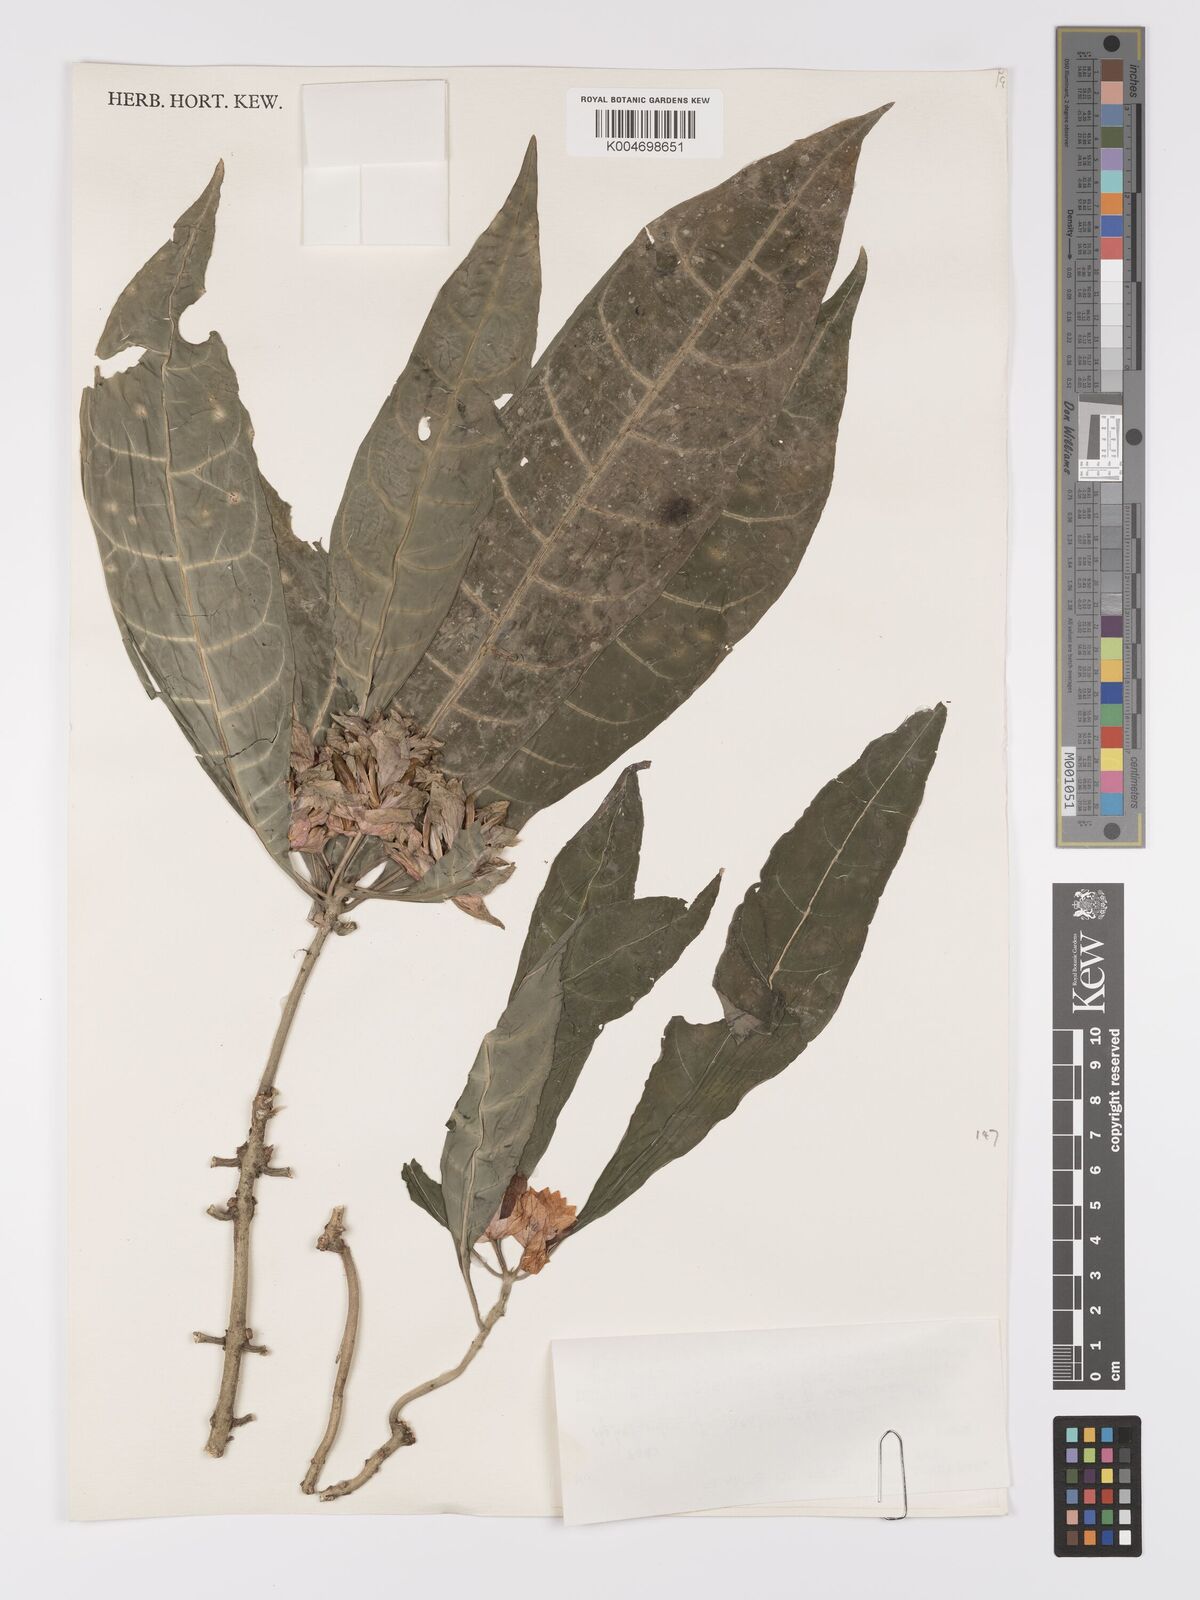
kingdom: Plantae
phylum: Tracheophyta
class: Magnoliopsida
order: Lamiales
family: Acanthaceae
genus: Aphelandra
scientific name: Aphelandra jacobinioides
